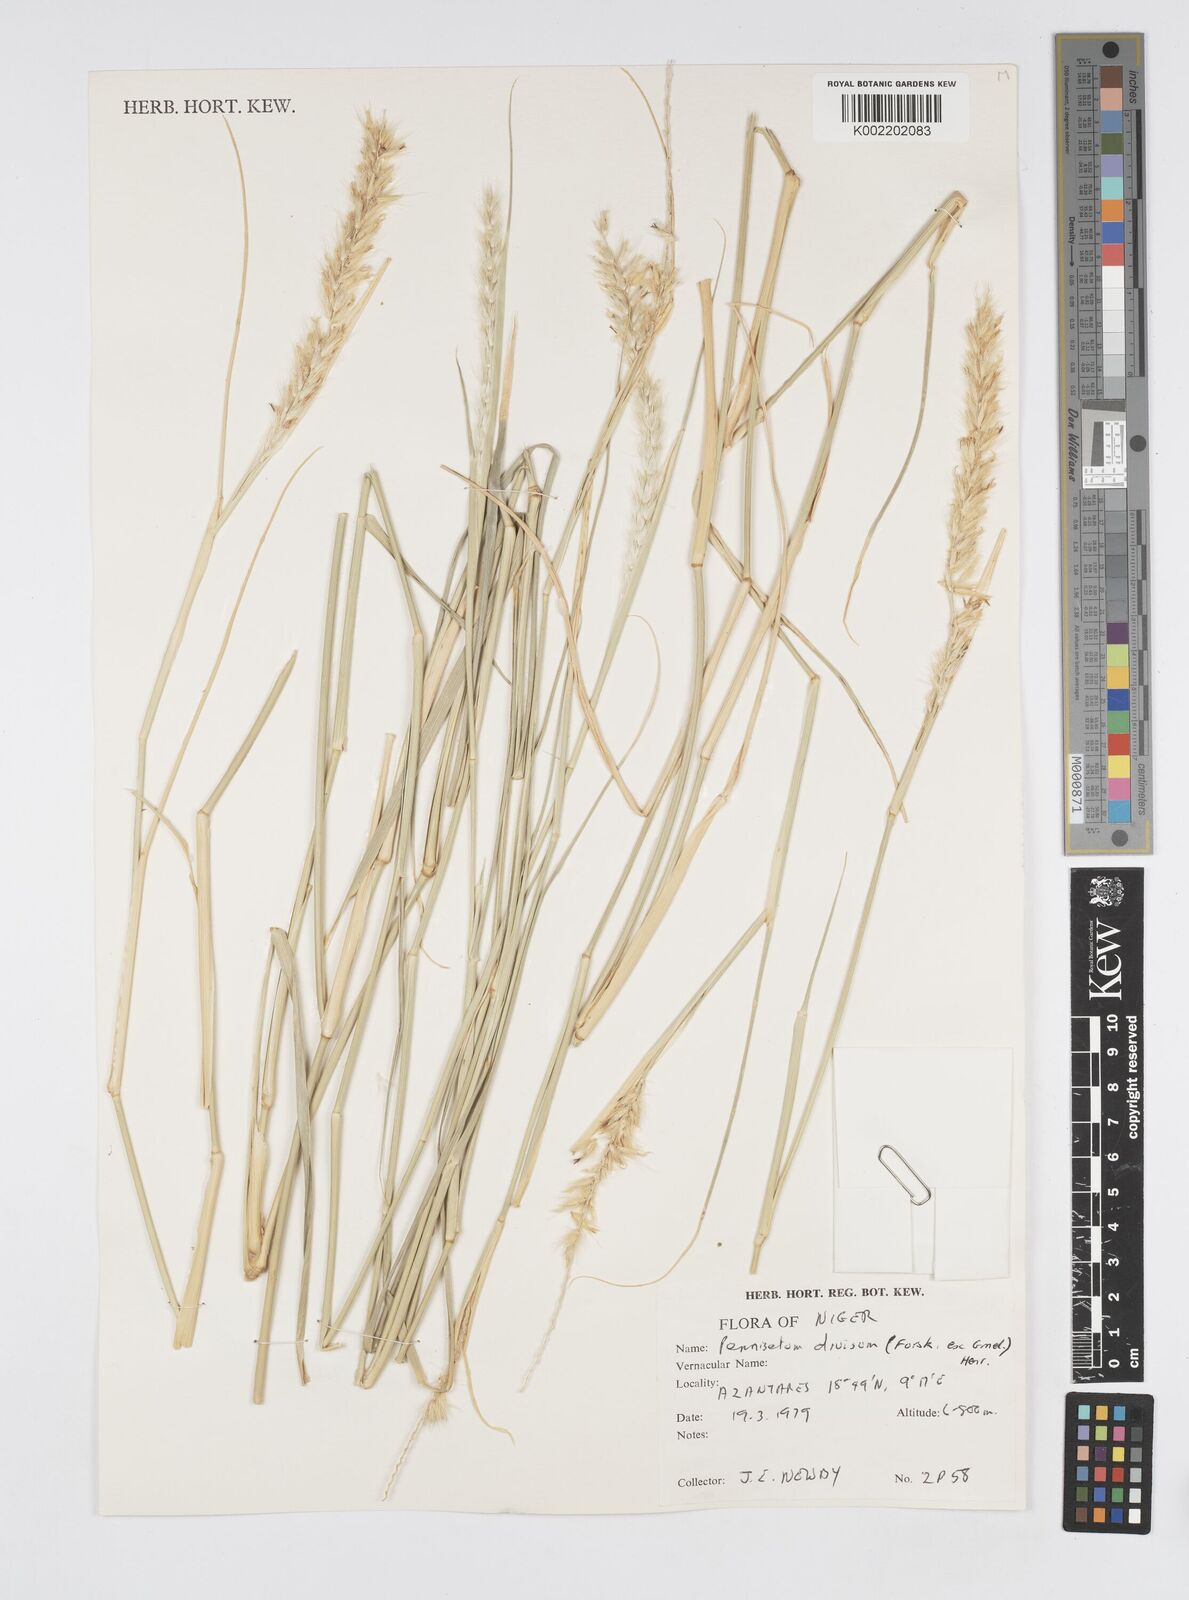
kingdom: Plantae
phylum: Tracheophyta
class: Liliopsida
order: Poales
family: Poaceae
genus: Cenchrus
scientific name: Cenchrus divisus
